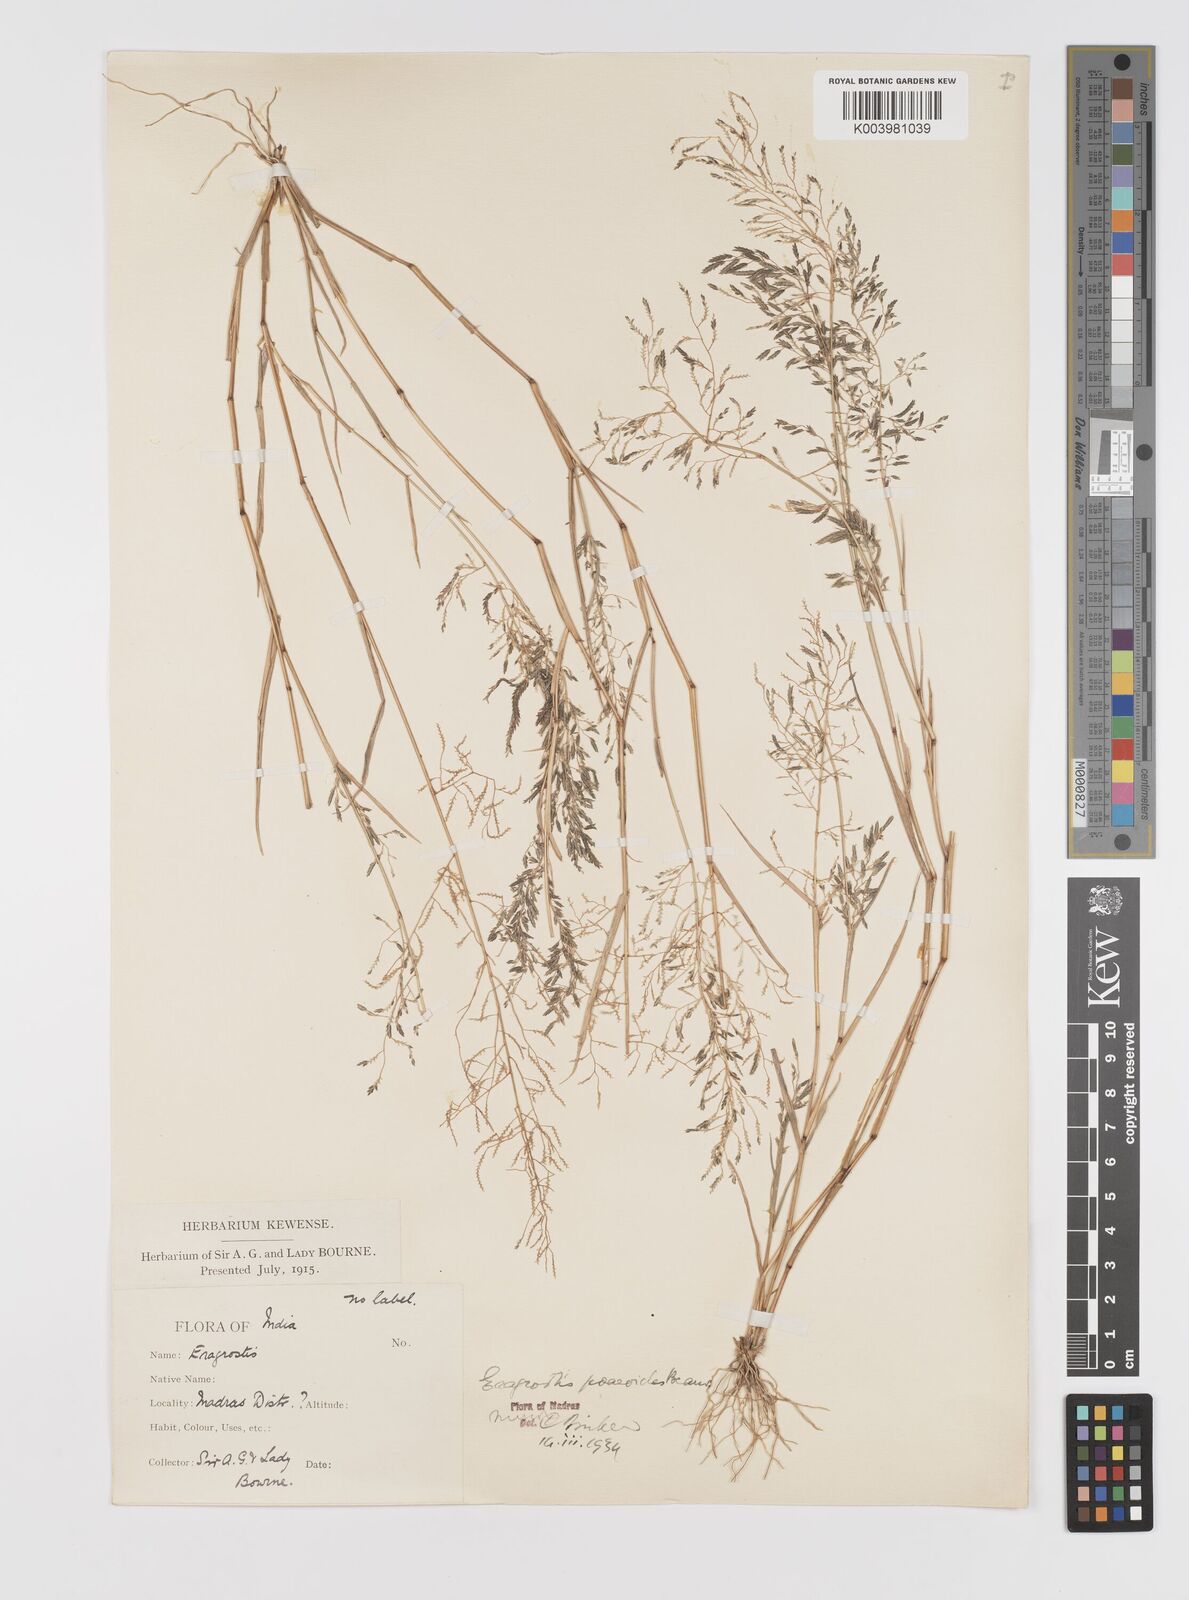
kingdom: Plantae
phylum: Tracheophyta
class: Liliopsida
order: Poales
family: Poaceae
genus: Eragrostis
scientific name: Eragrostis minor
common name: Small love-grass
